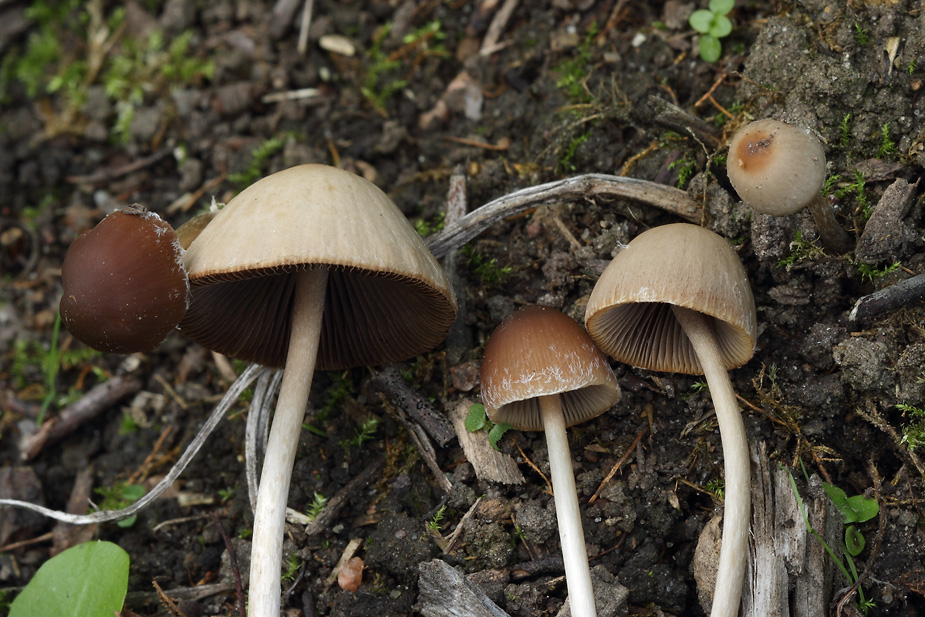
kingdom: Fungi
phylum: Basidiomycota
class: Agaricomycetes
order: Agaricales
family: Psathyrellaceae
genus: Psathyrella
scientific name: Psathyrella
